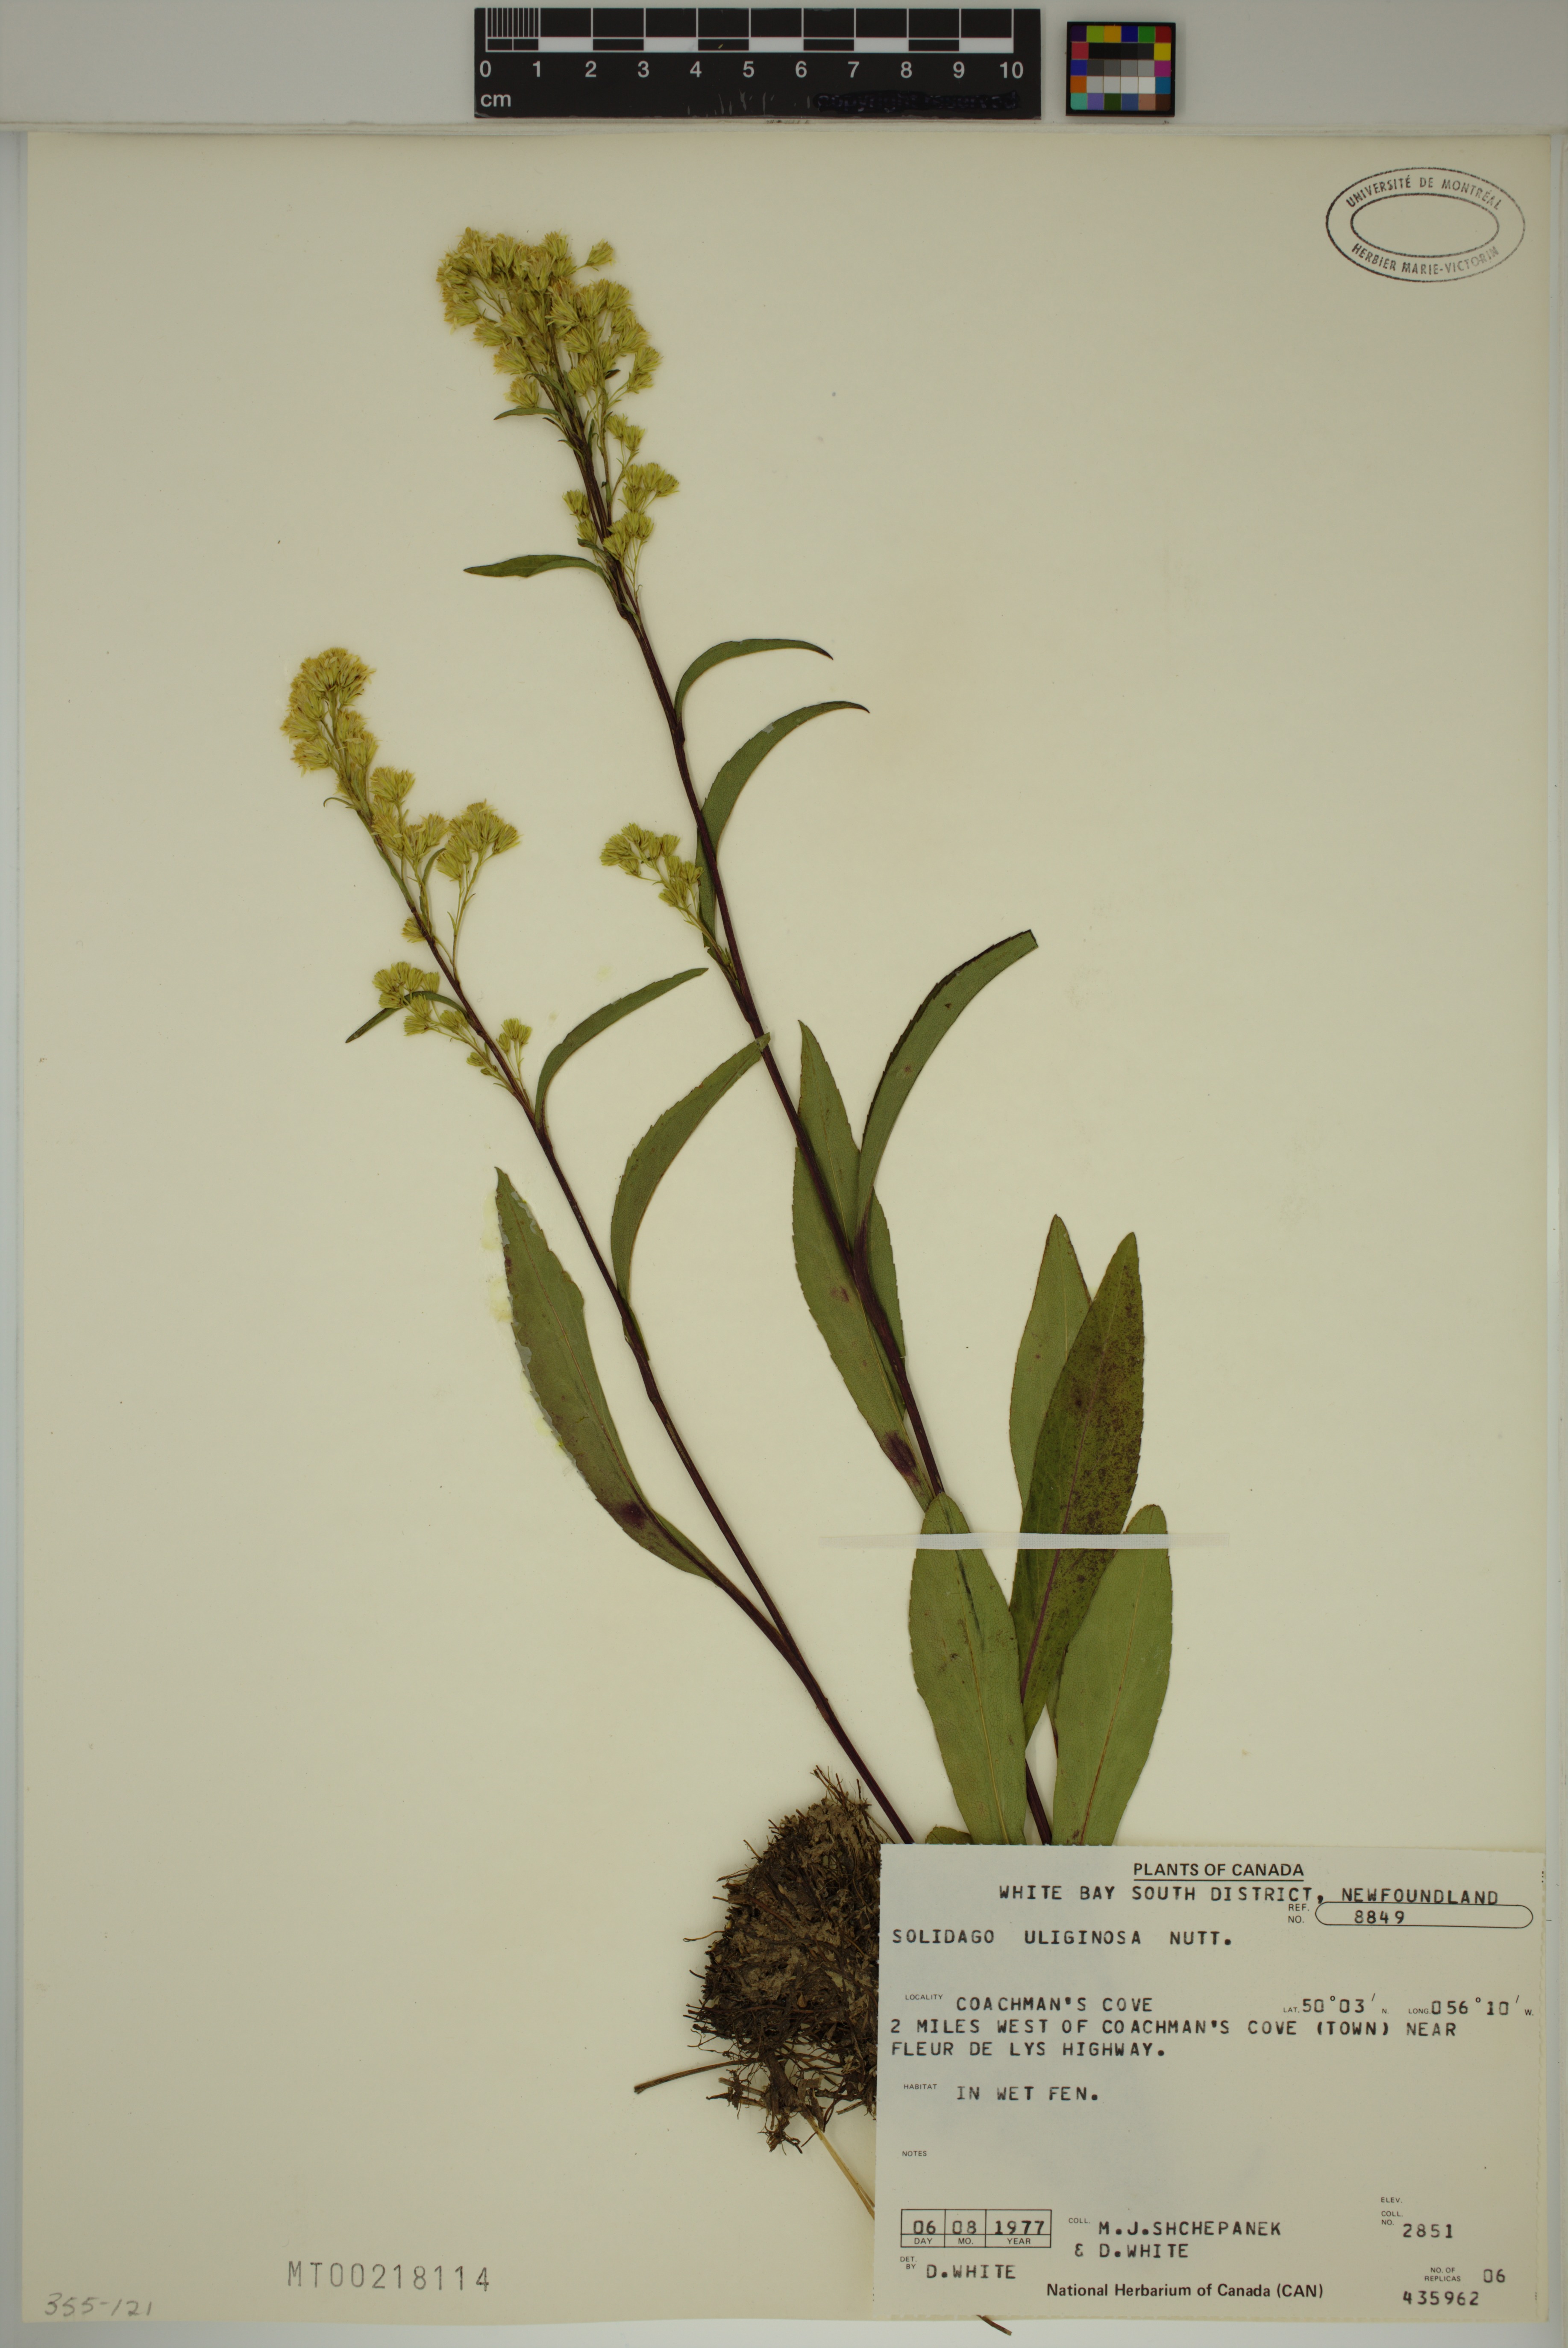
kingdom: Plantae
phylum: Tracheophyta
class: Magnoliopsida
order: Asterales
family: Asteraceae
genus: Solidago
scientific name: Solidago uliginosa
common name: Bog goldenrod
